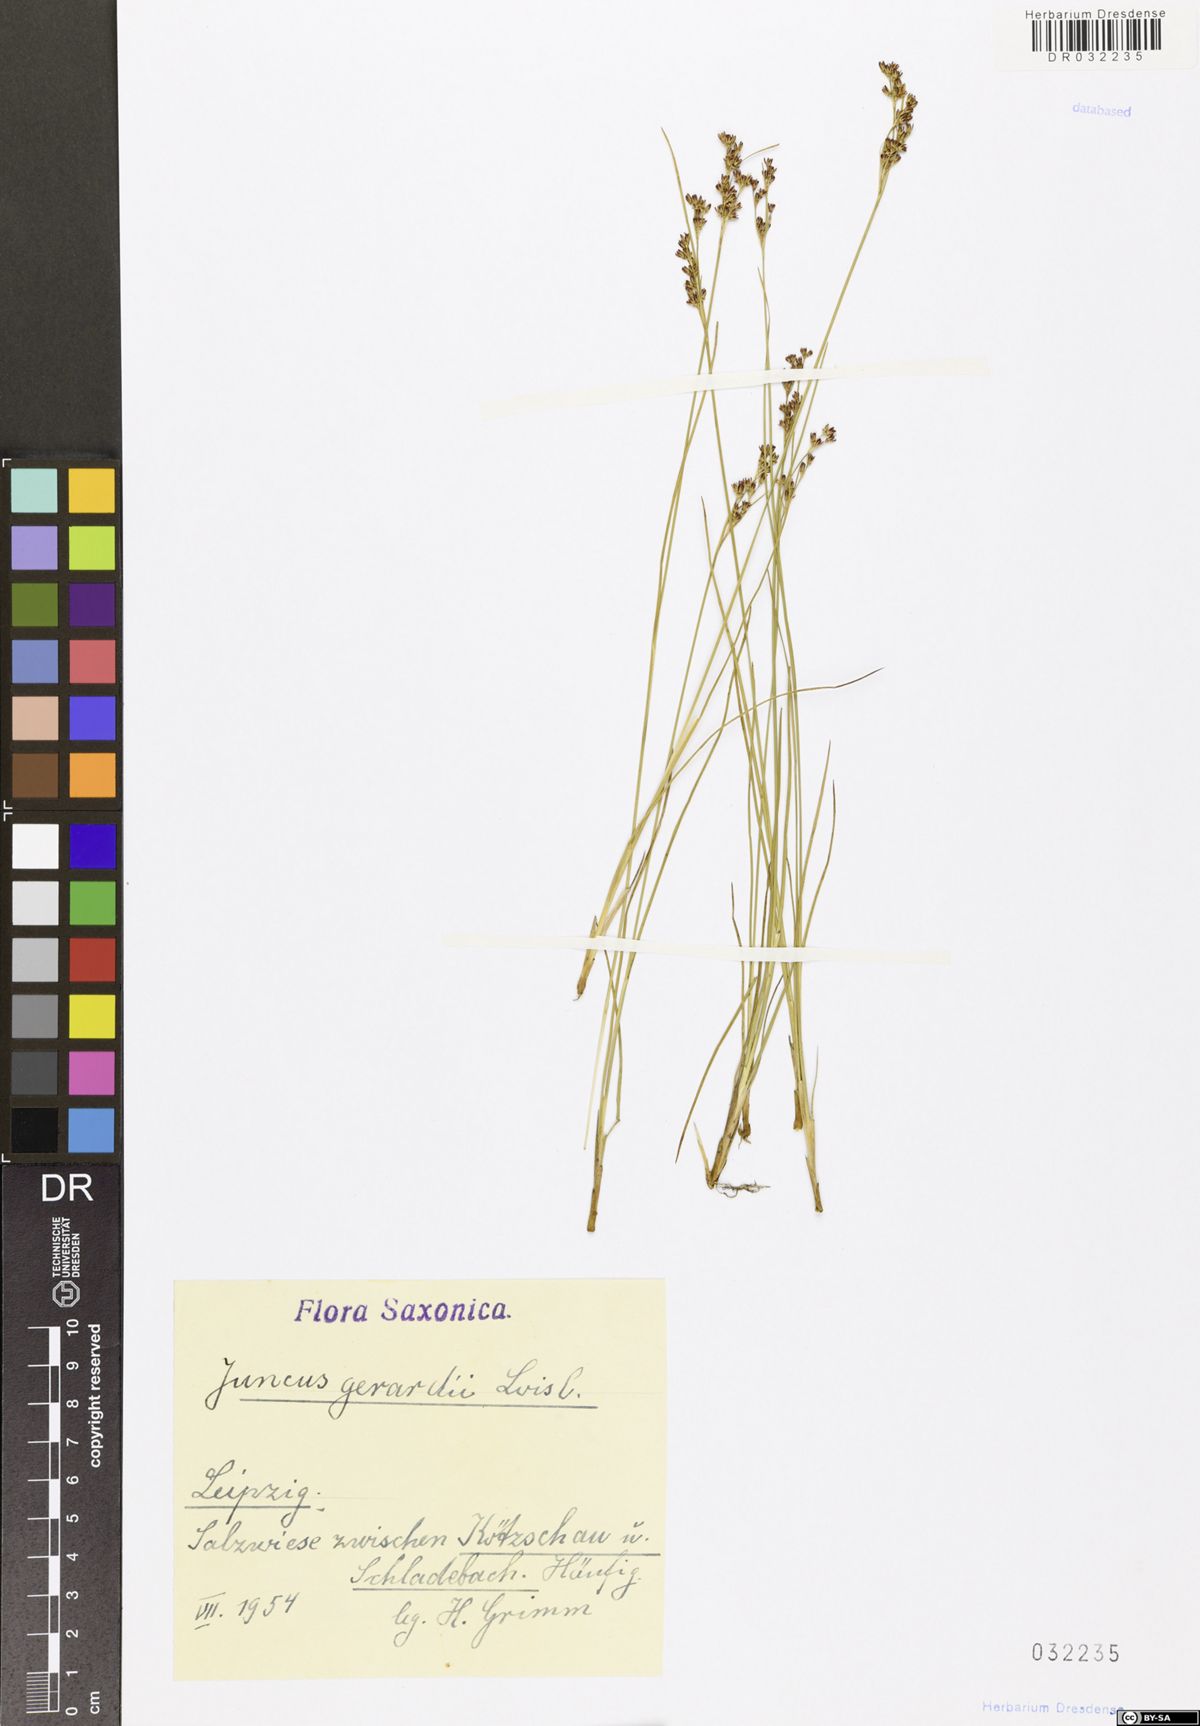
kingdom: Plantae
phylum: Tracheophyta
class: Liliopsida
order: Poales
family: Juncaceae
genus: Juncus
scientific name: Juncus gerardi
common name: Saltmarsh rush
